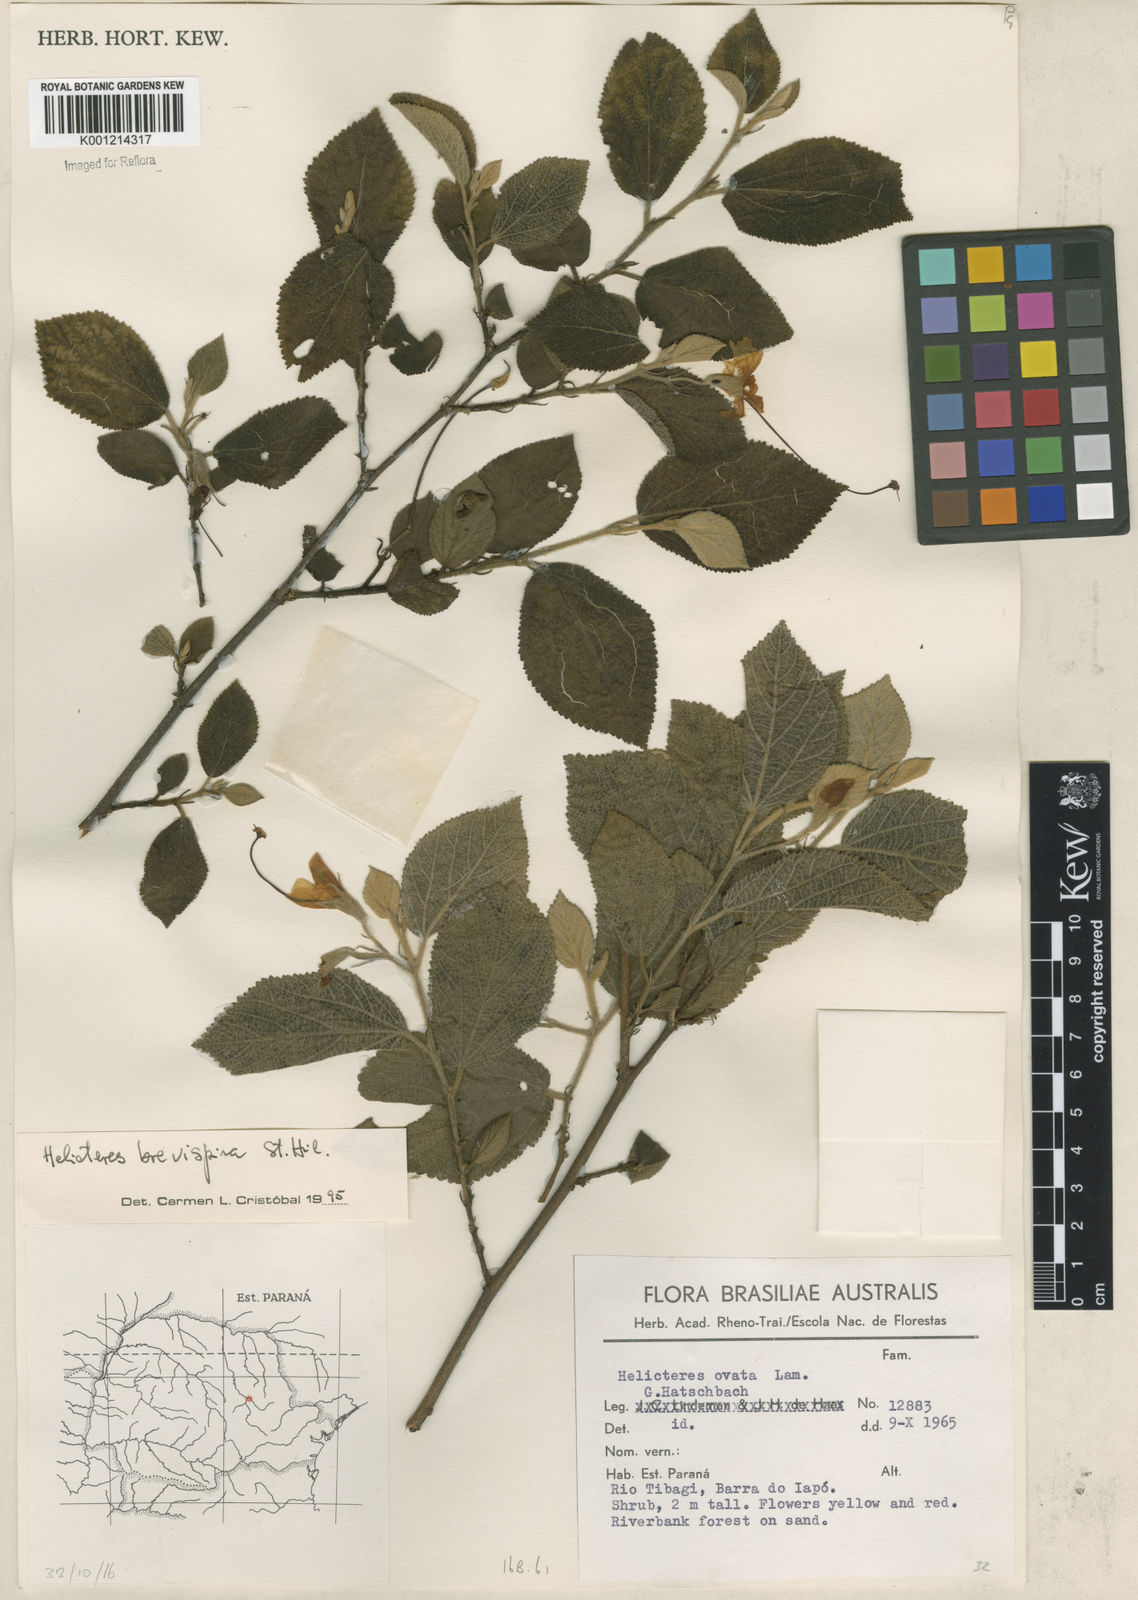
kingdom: Plantae
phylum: Tracheophyta
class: Magnoliopsida
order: Malvales
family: Malvaceae
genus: Helicteres
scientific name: Helicteres
